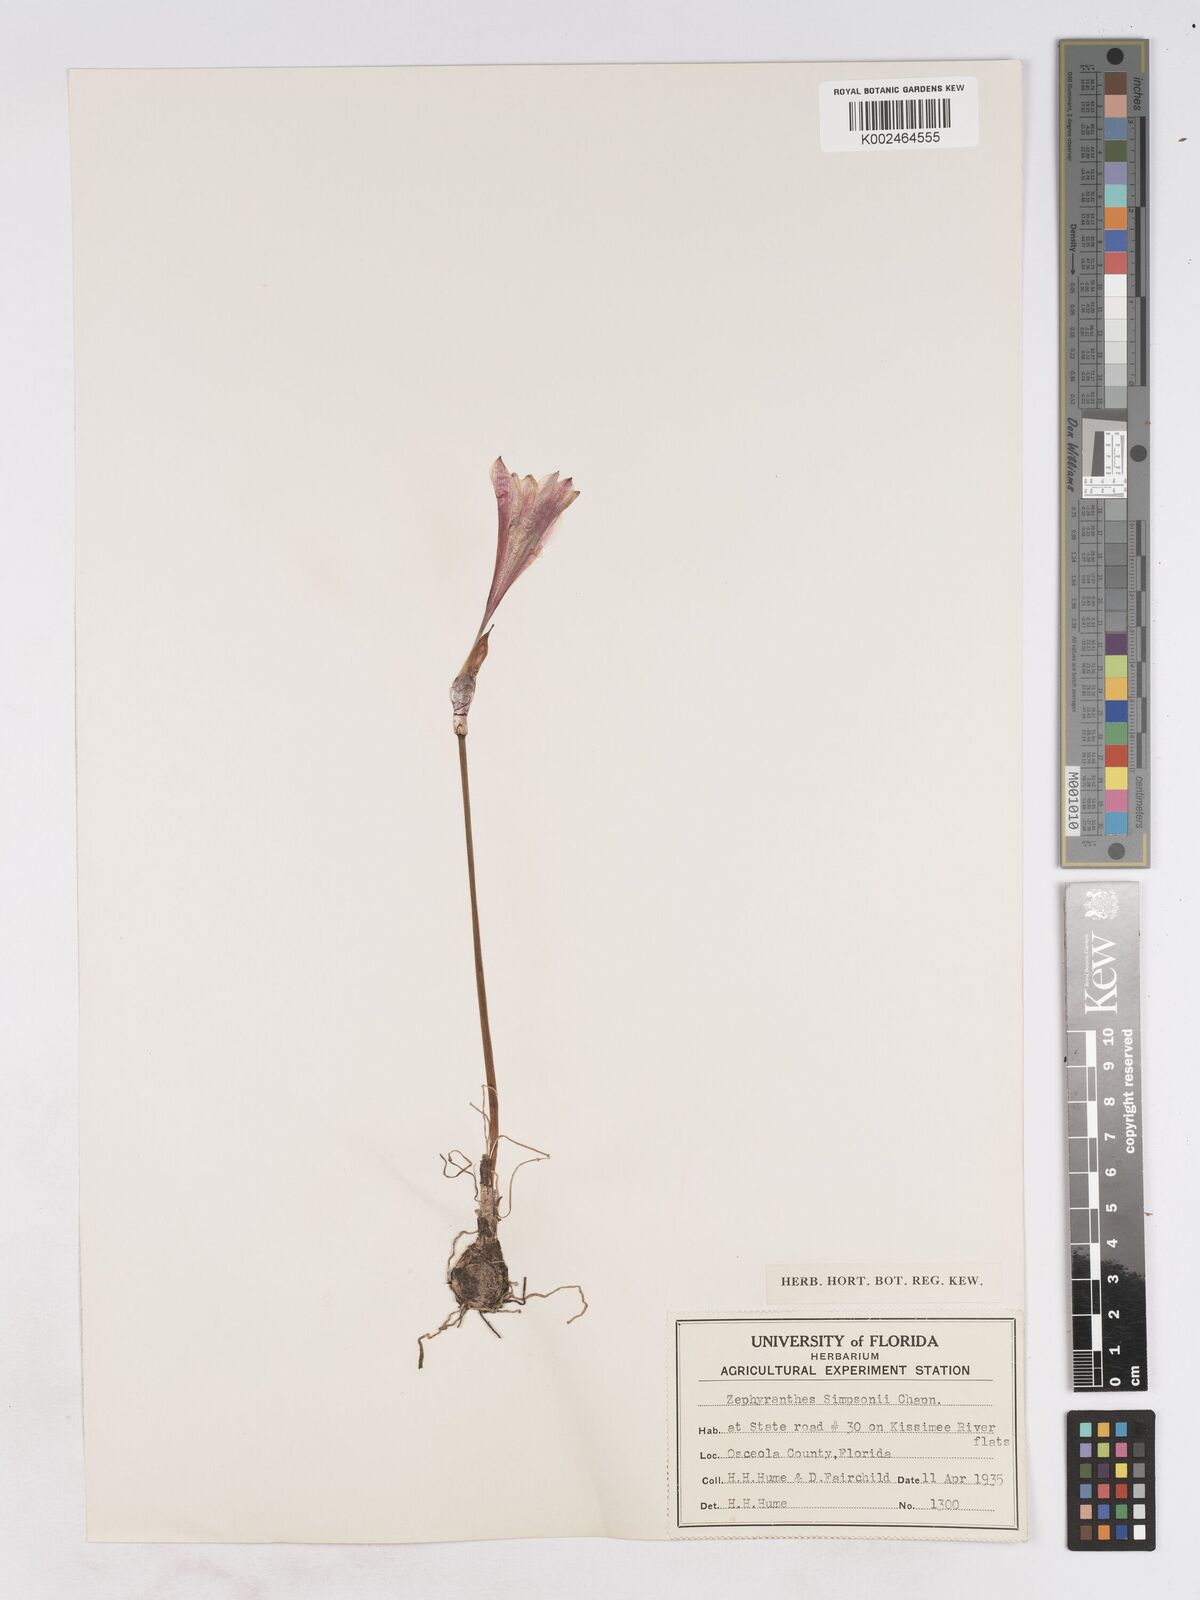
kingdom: Plantae
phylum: Tracheophyta
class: Liliopsida
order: Asparagales
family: Amaryllidaceae
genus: Zephyranthes
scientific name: Zephyranthes simpsonii
